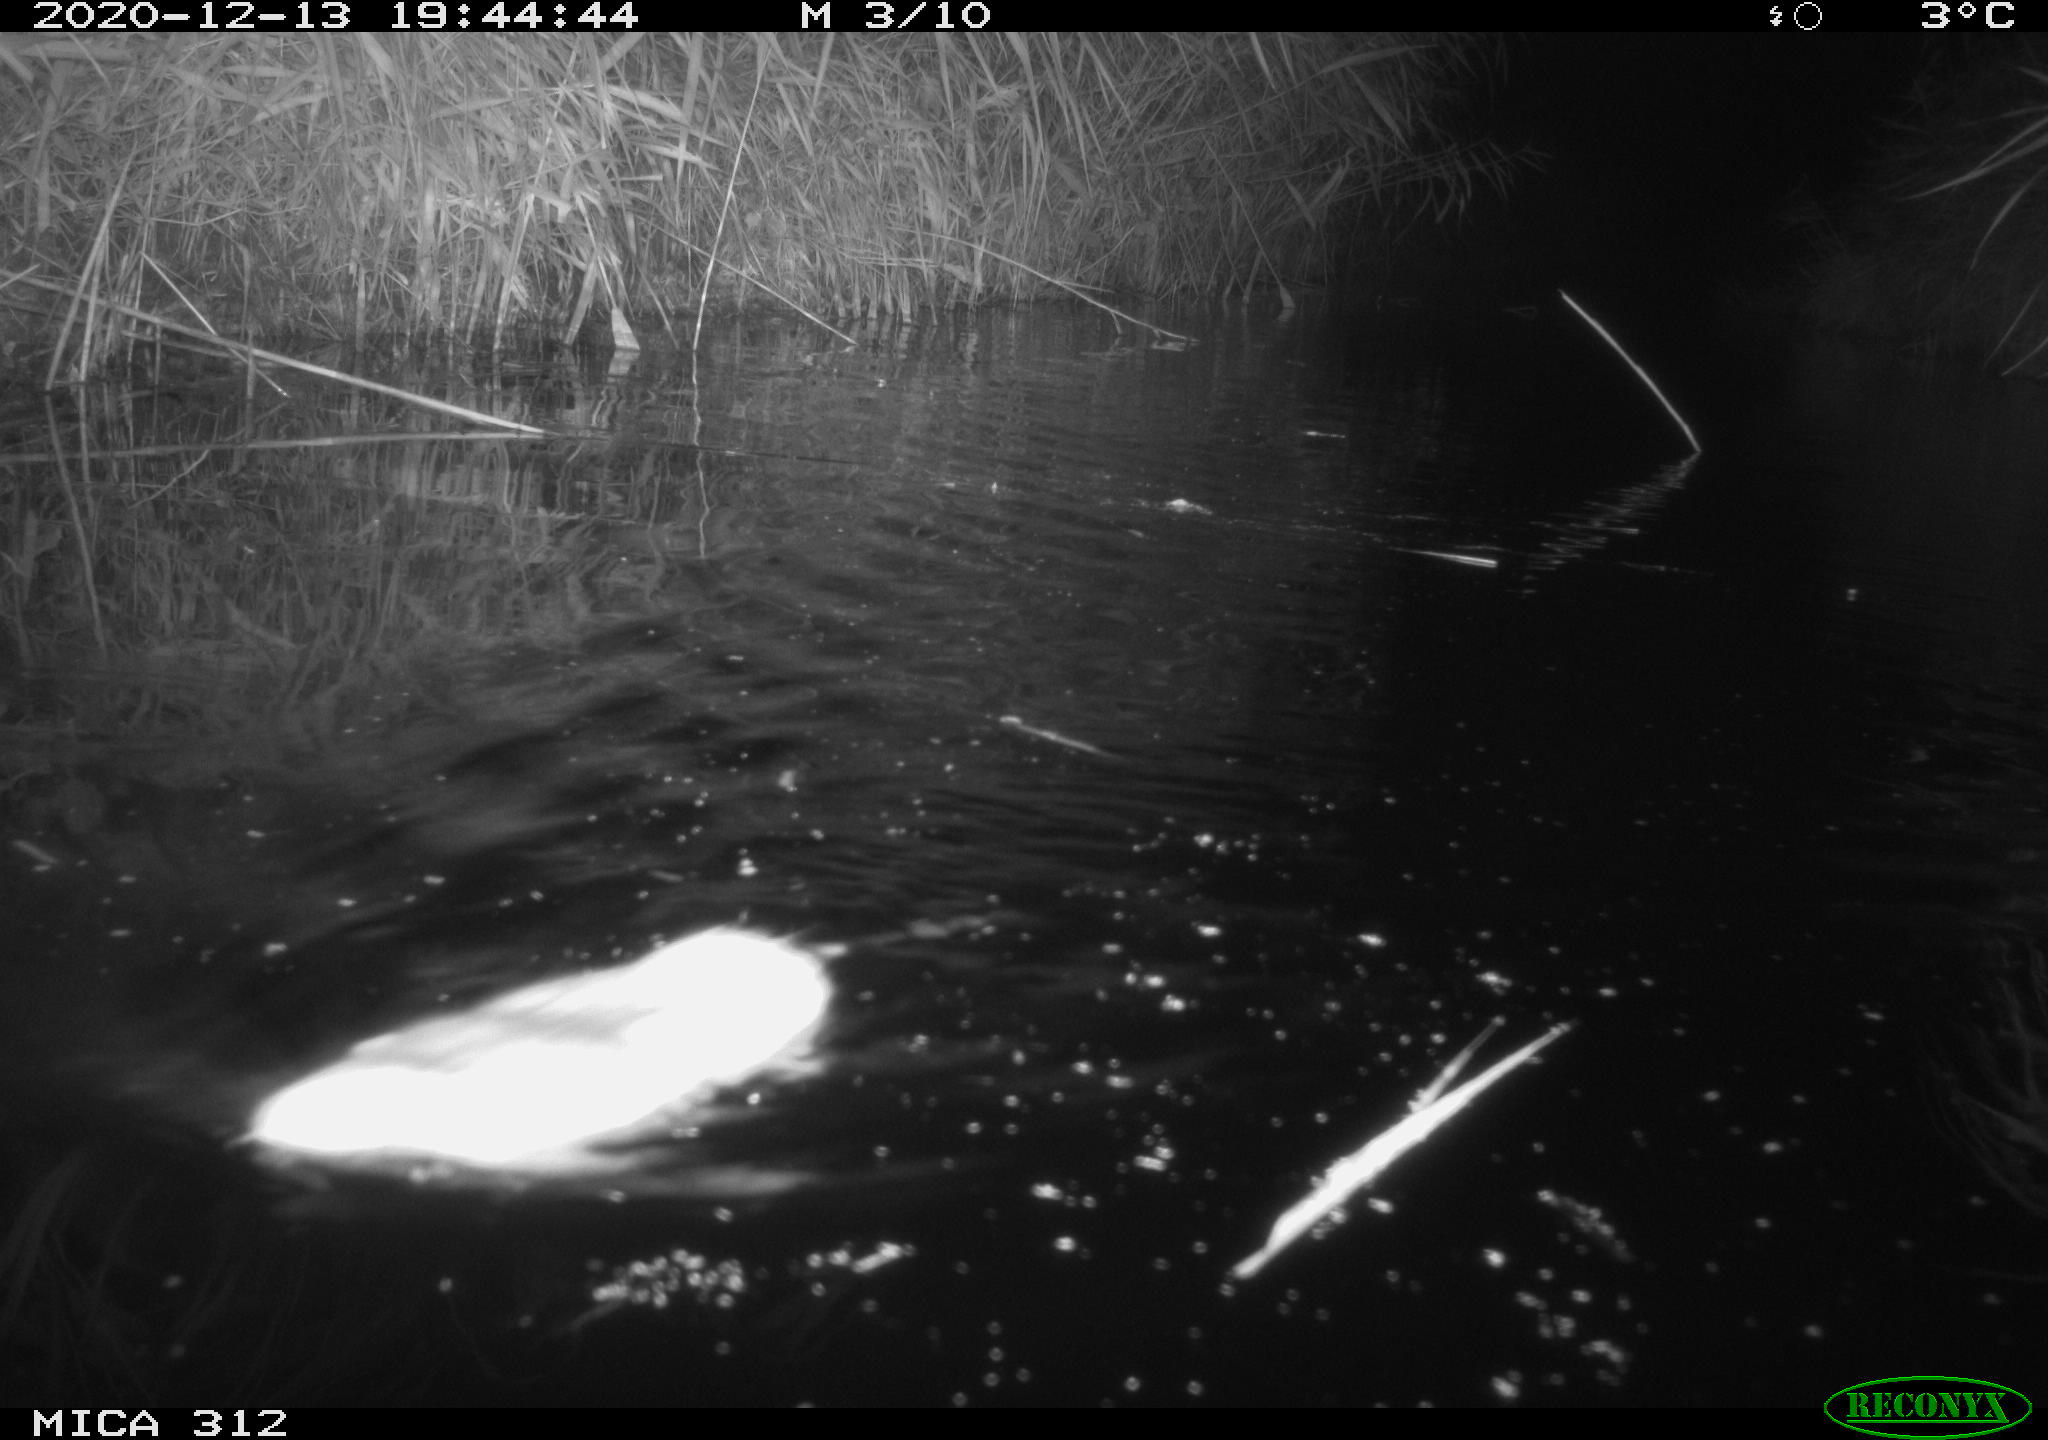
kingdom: Animalia
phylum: Chordata
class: Mammalia
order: Rodentia
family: Muridae
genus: Rattus
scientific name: Rattus norvegicus
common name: Brown rat
